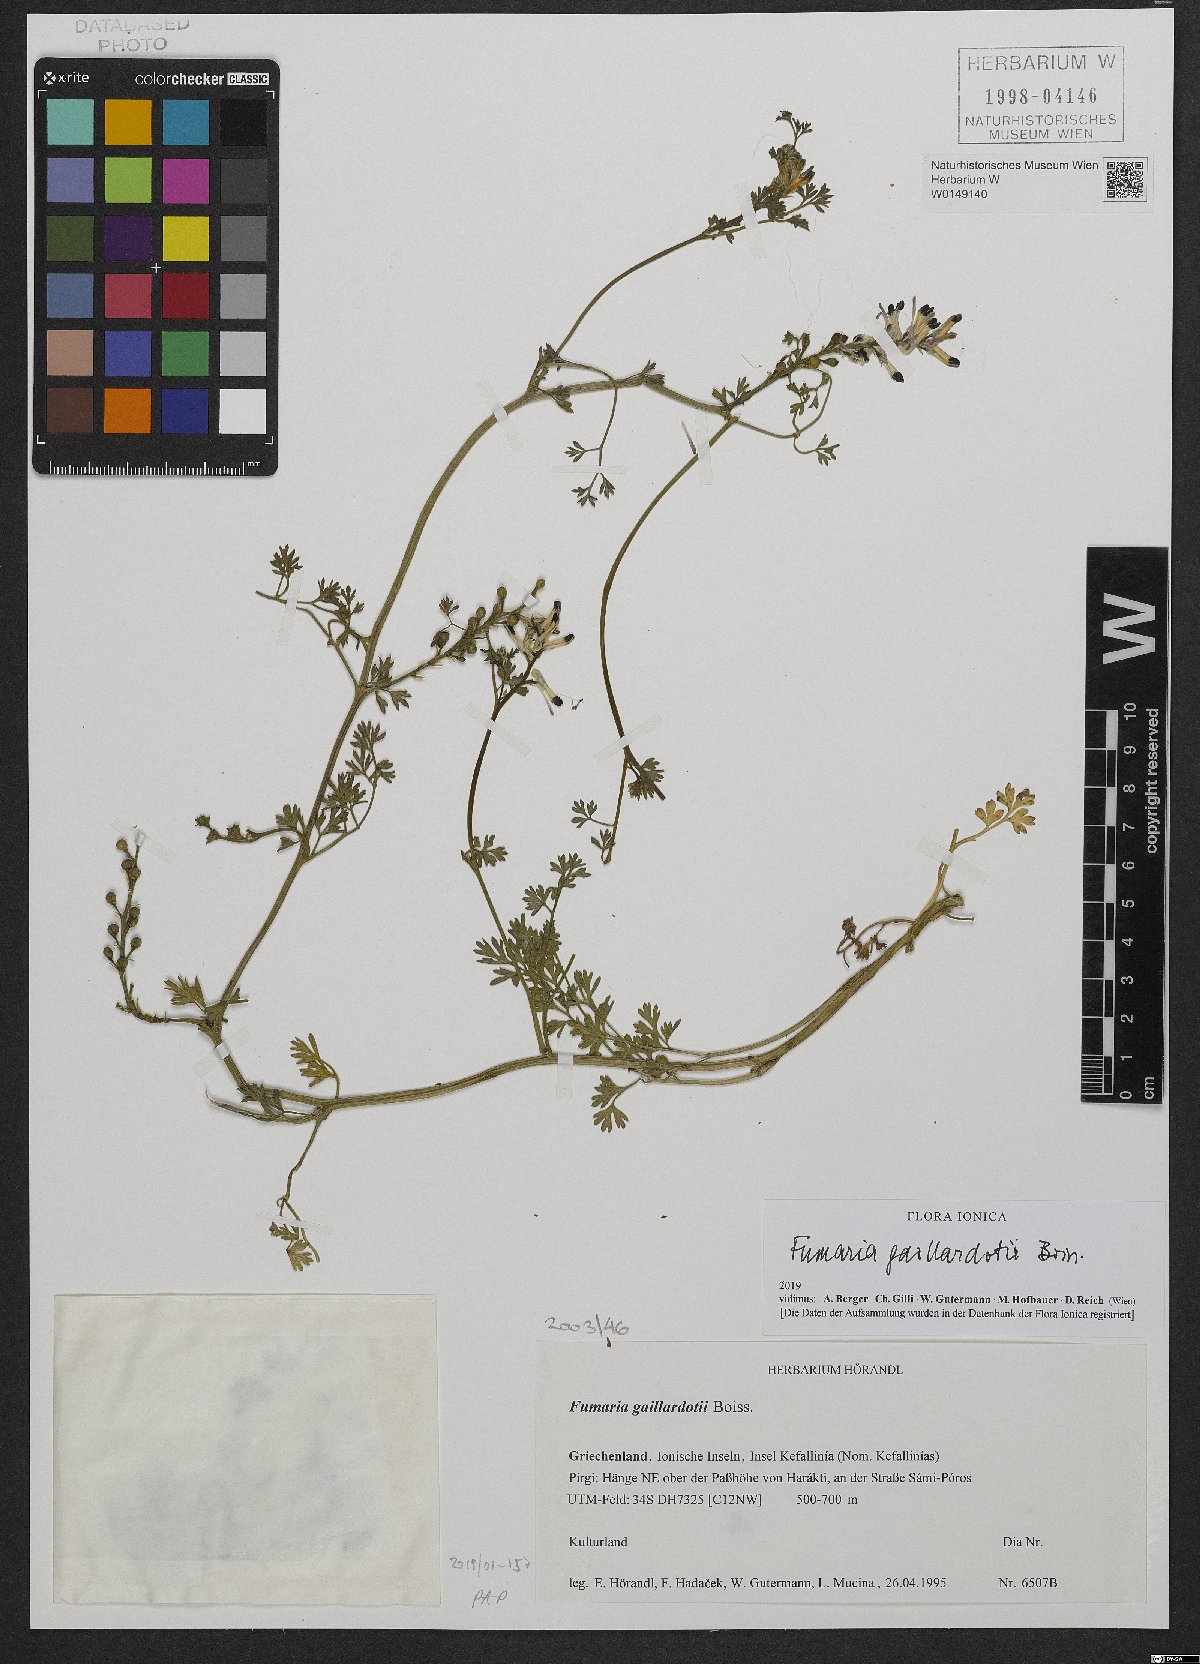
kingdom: Plantae
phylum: Tracheophyta
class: Magnoliopsida
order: Ranunculales
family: Papaveraceae
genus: Fumaria
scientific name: Fumaria gaillardotii
